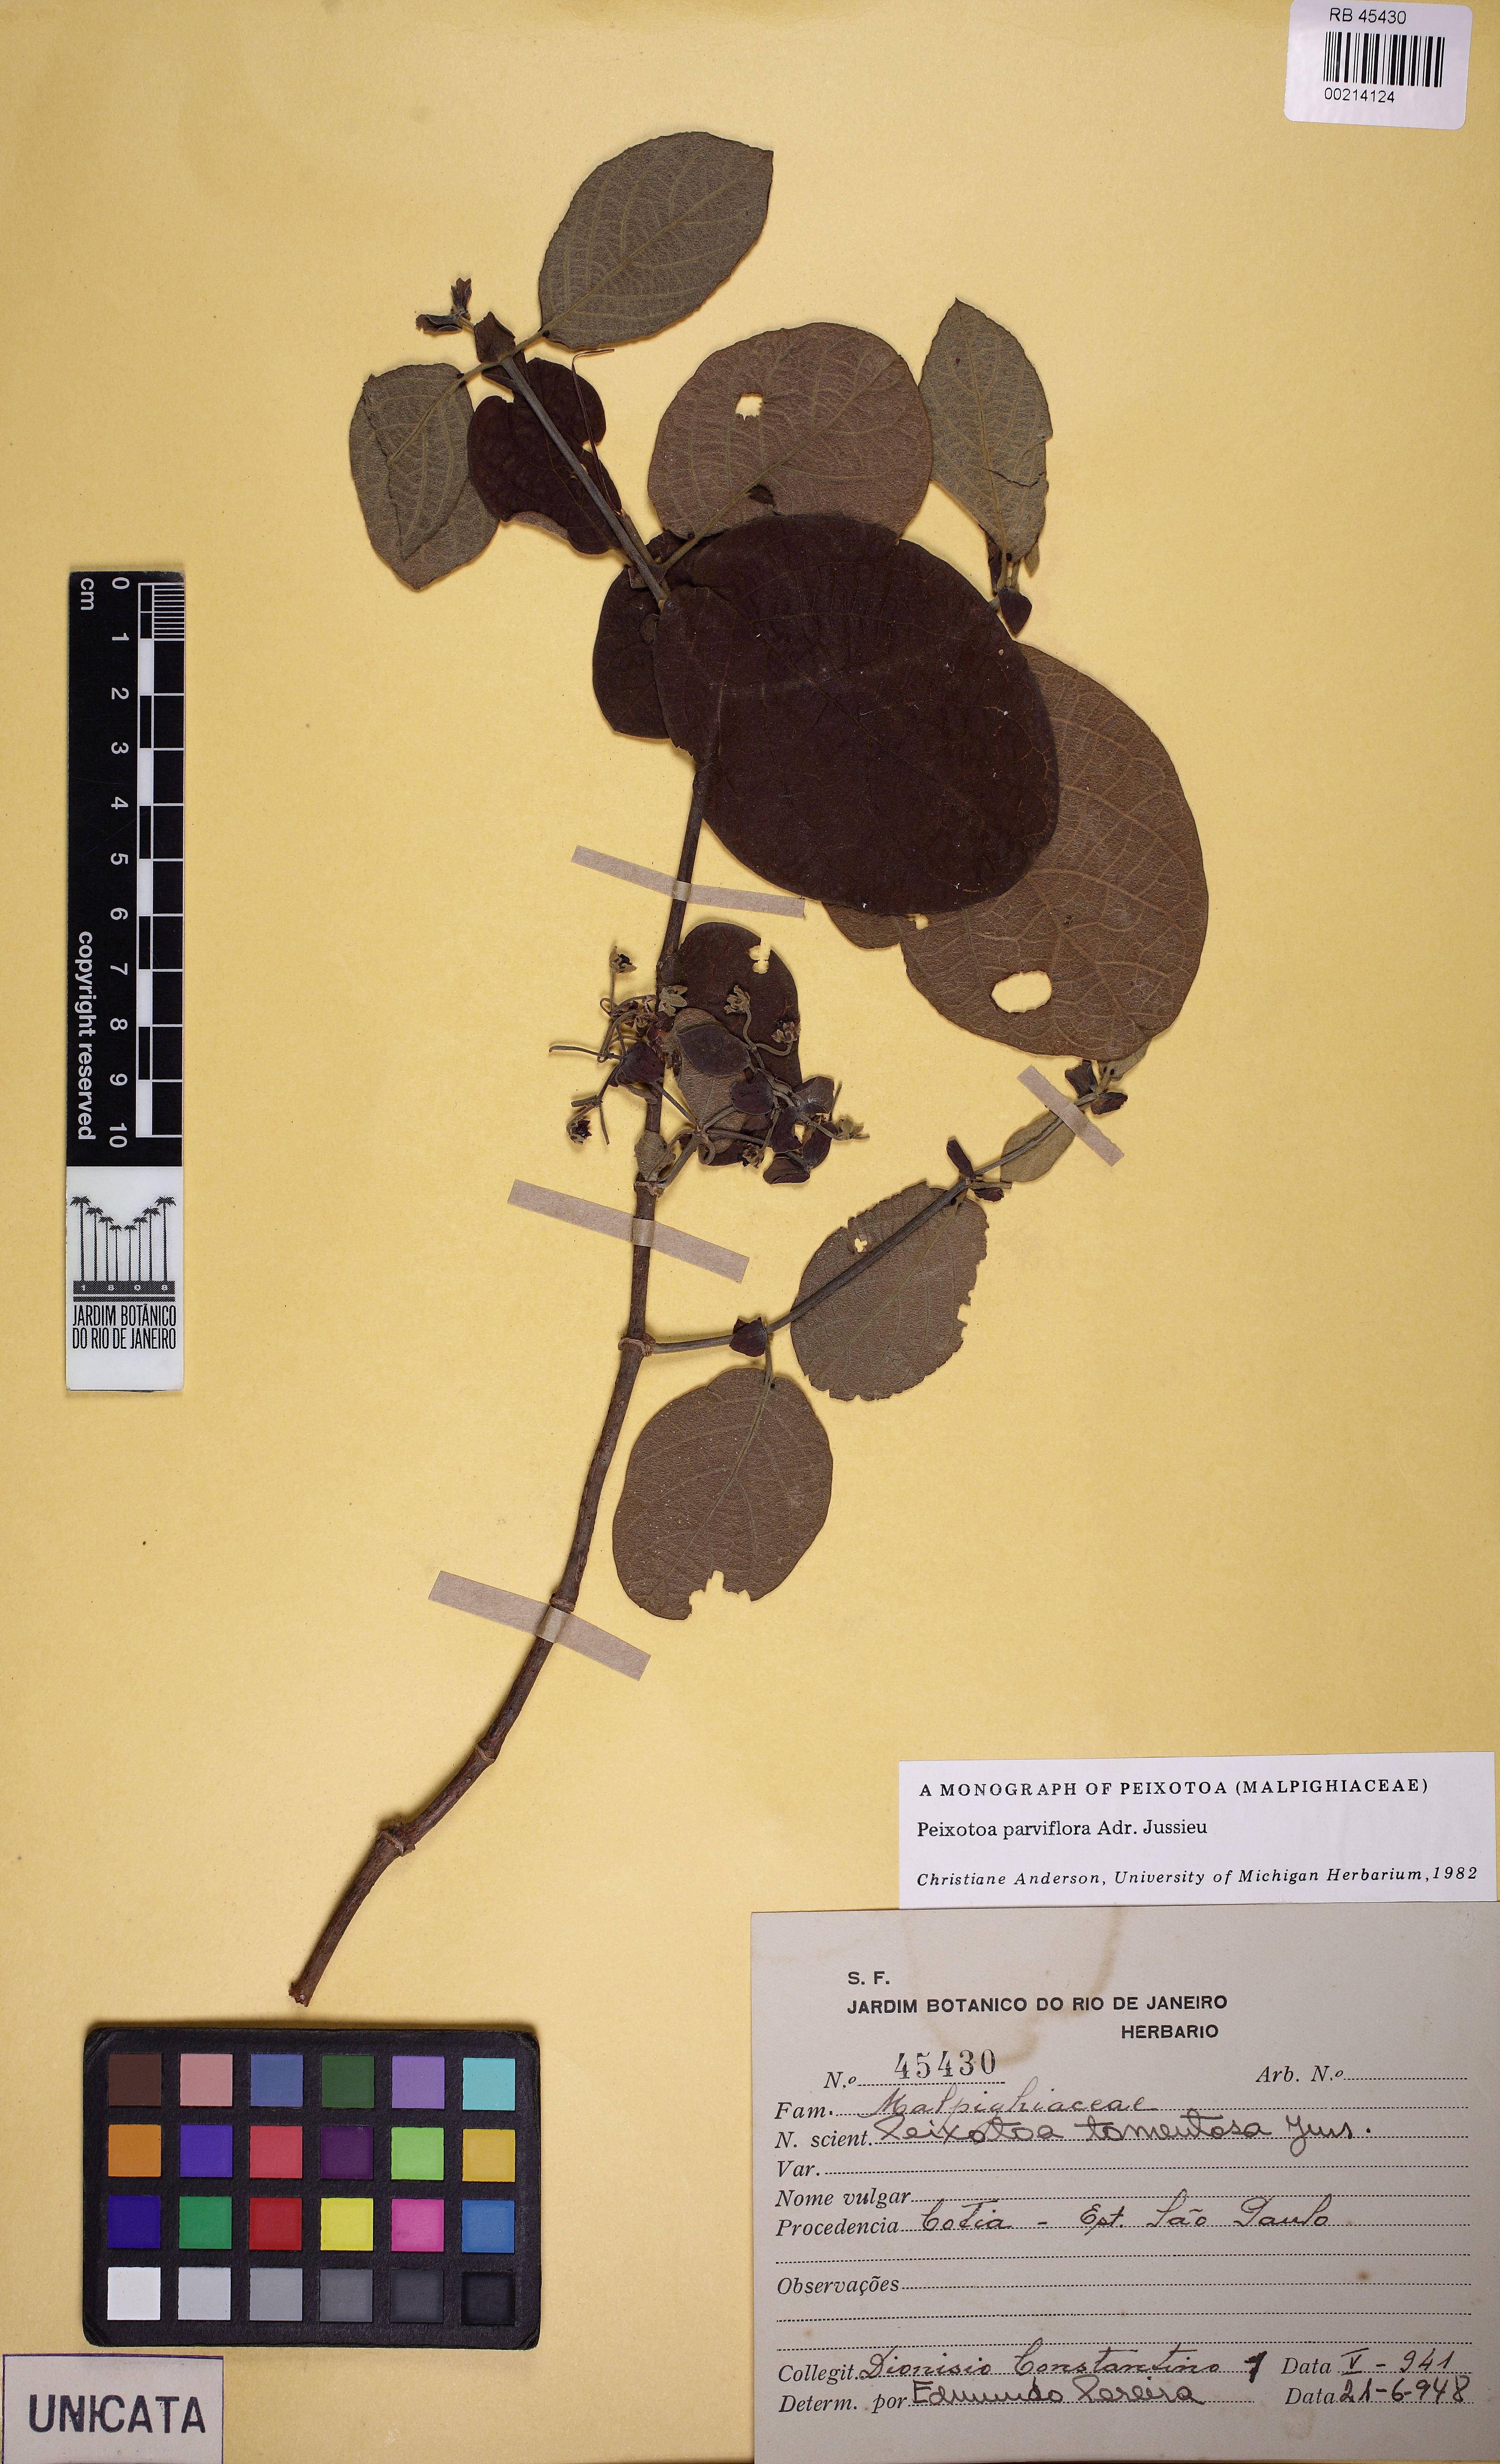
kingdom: Plantae
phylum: Tracheophyta
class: Magnoliopsida
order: Malpighiales
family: Malpighiaceae
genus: Peixotoa
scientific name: Peixotoa parviflora
